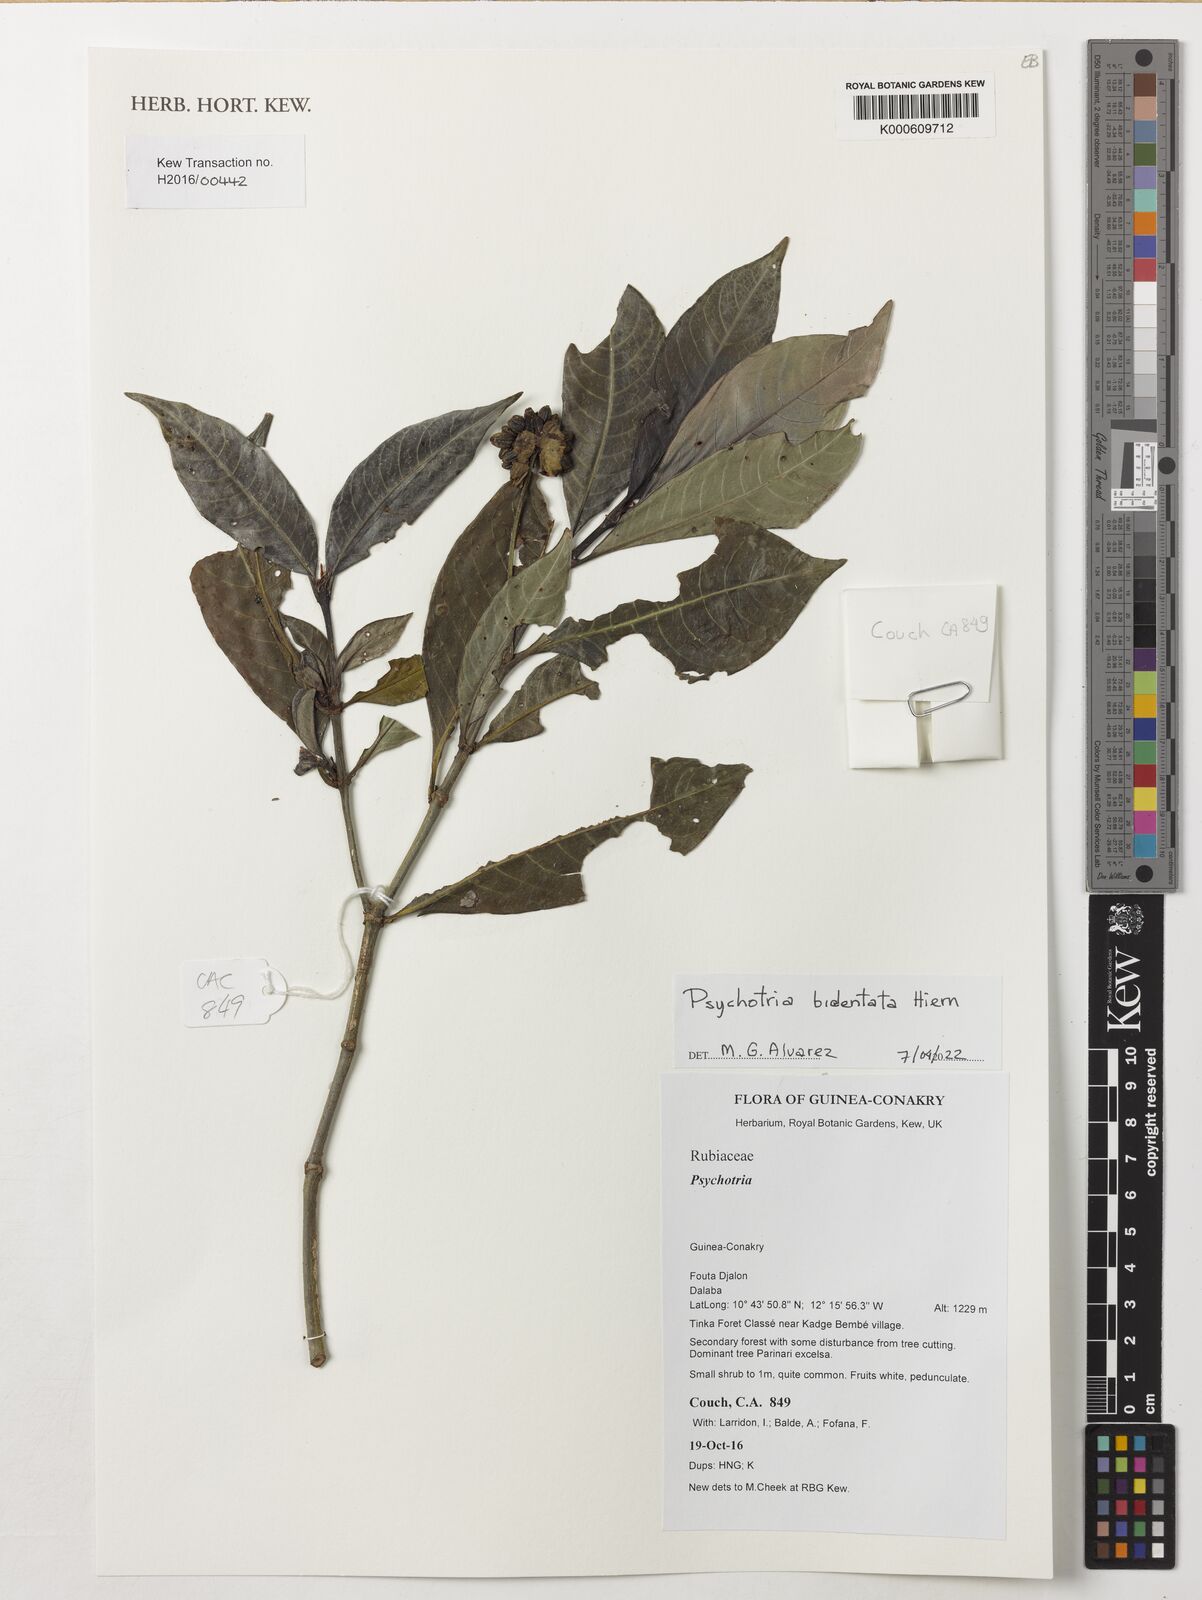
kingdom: Plantae
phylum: Tracheophyta
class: Magnoliopsida
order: Gentianales
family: Rubiaceae
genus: Psychotria
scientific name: Psychotria
